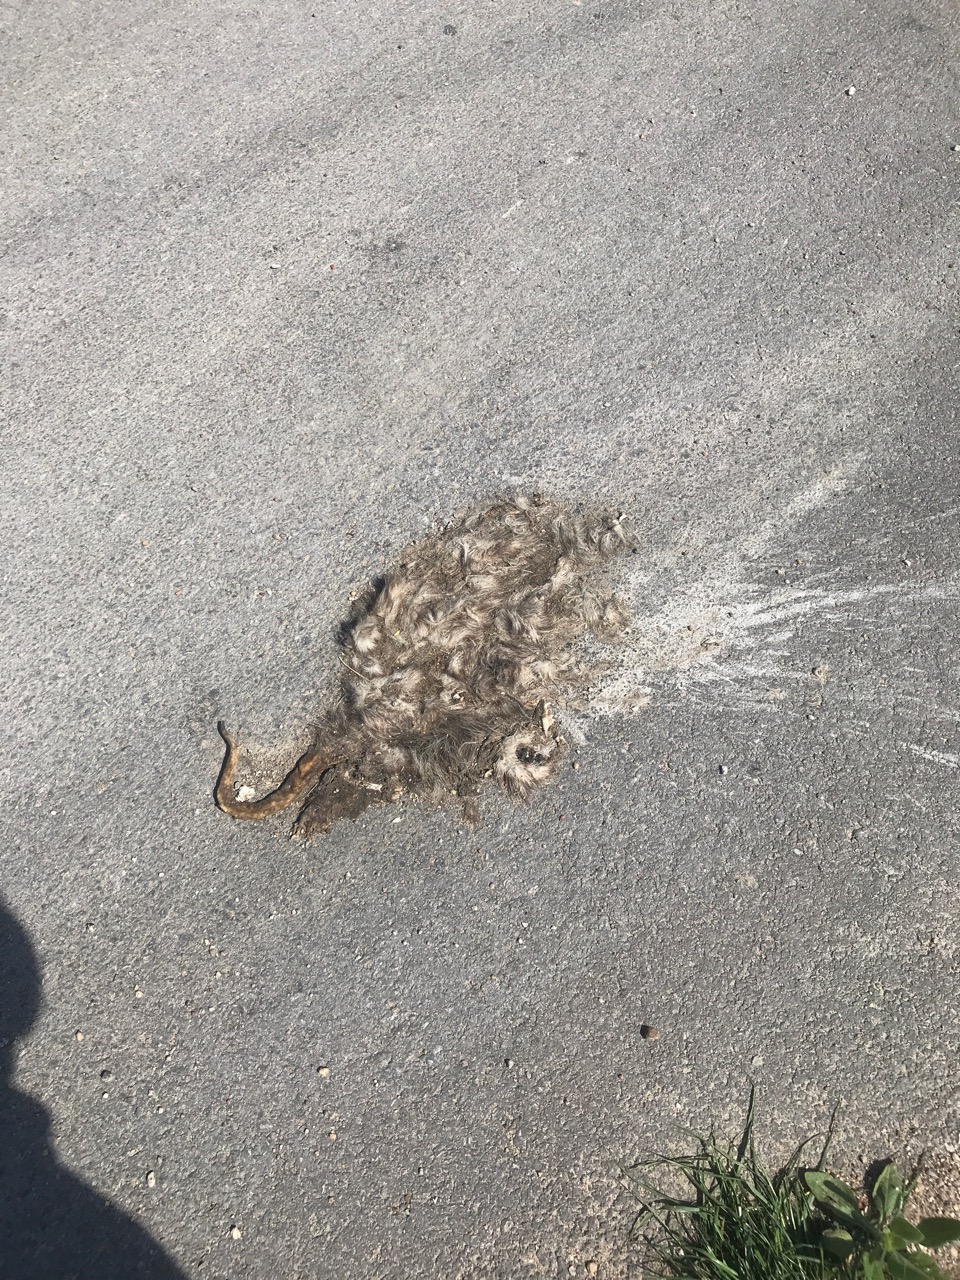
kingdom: Animalia
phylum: Chordata
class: Mammalia
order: Didelphimorphia
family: Didelphidae
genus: Didelphis
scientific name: Didelphis virginiana
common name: Virginia opossum
